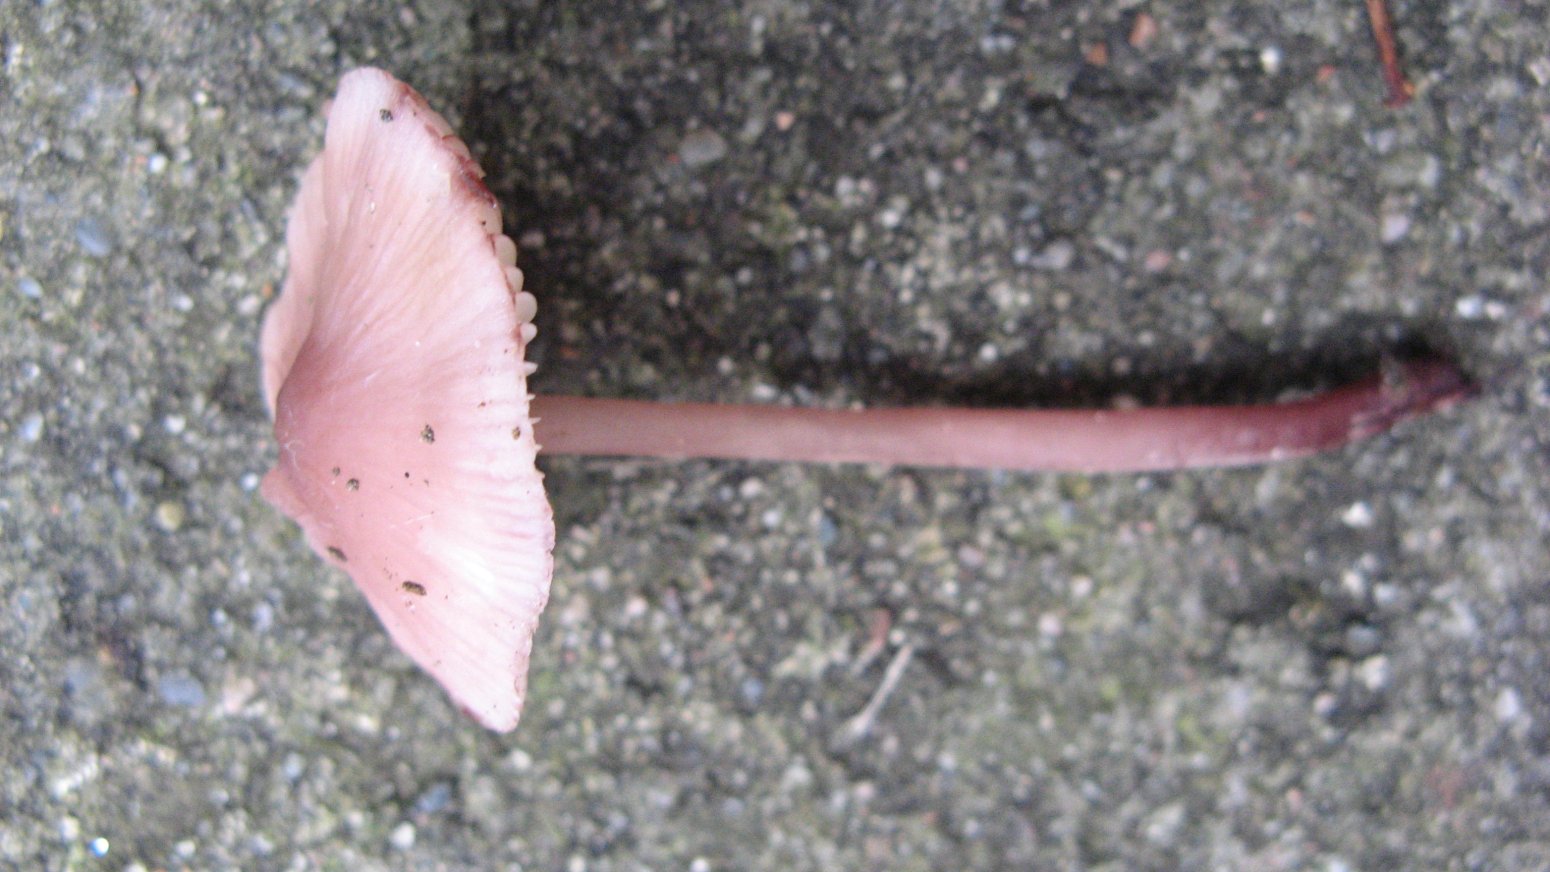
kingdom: Fungi
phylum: Basidiomycota
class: Agaricomycetes
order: Agaricales
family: Mycenaceae
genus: Mycena
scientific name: Mycena haematopus
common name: blødende huesvamp
